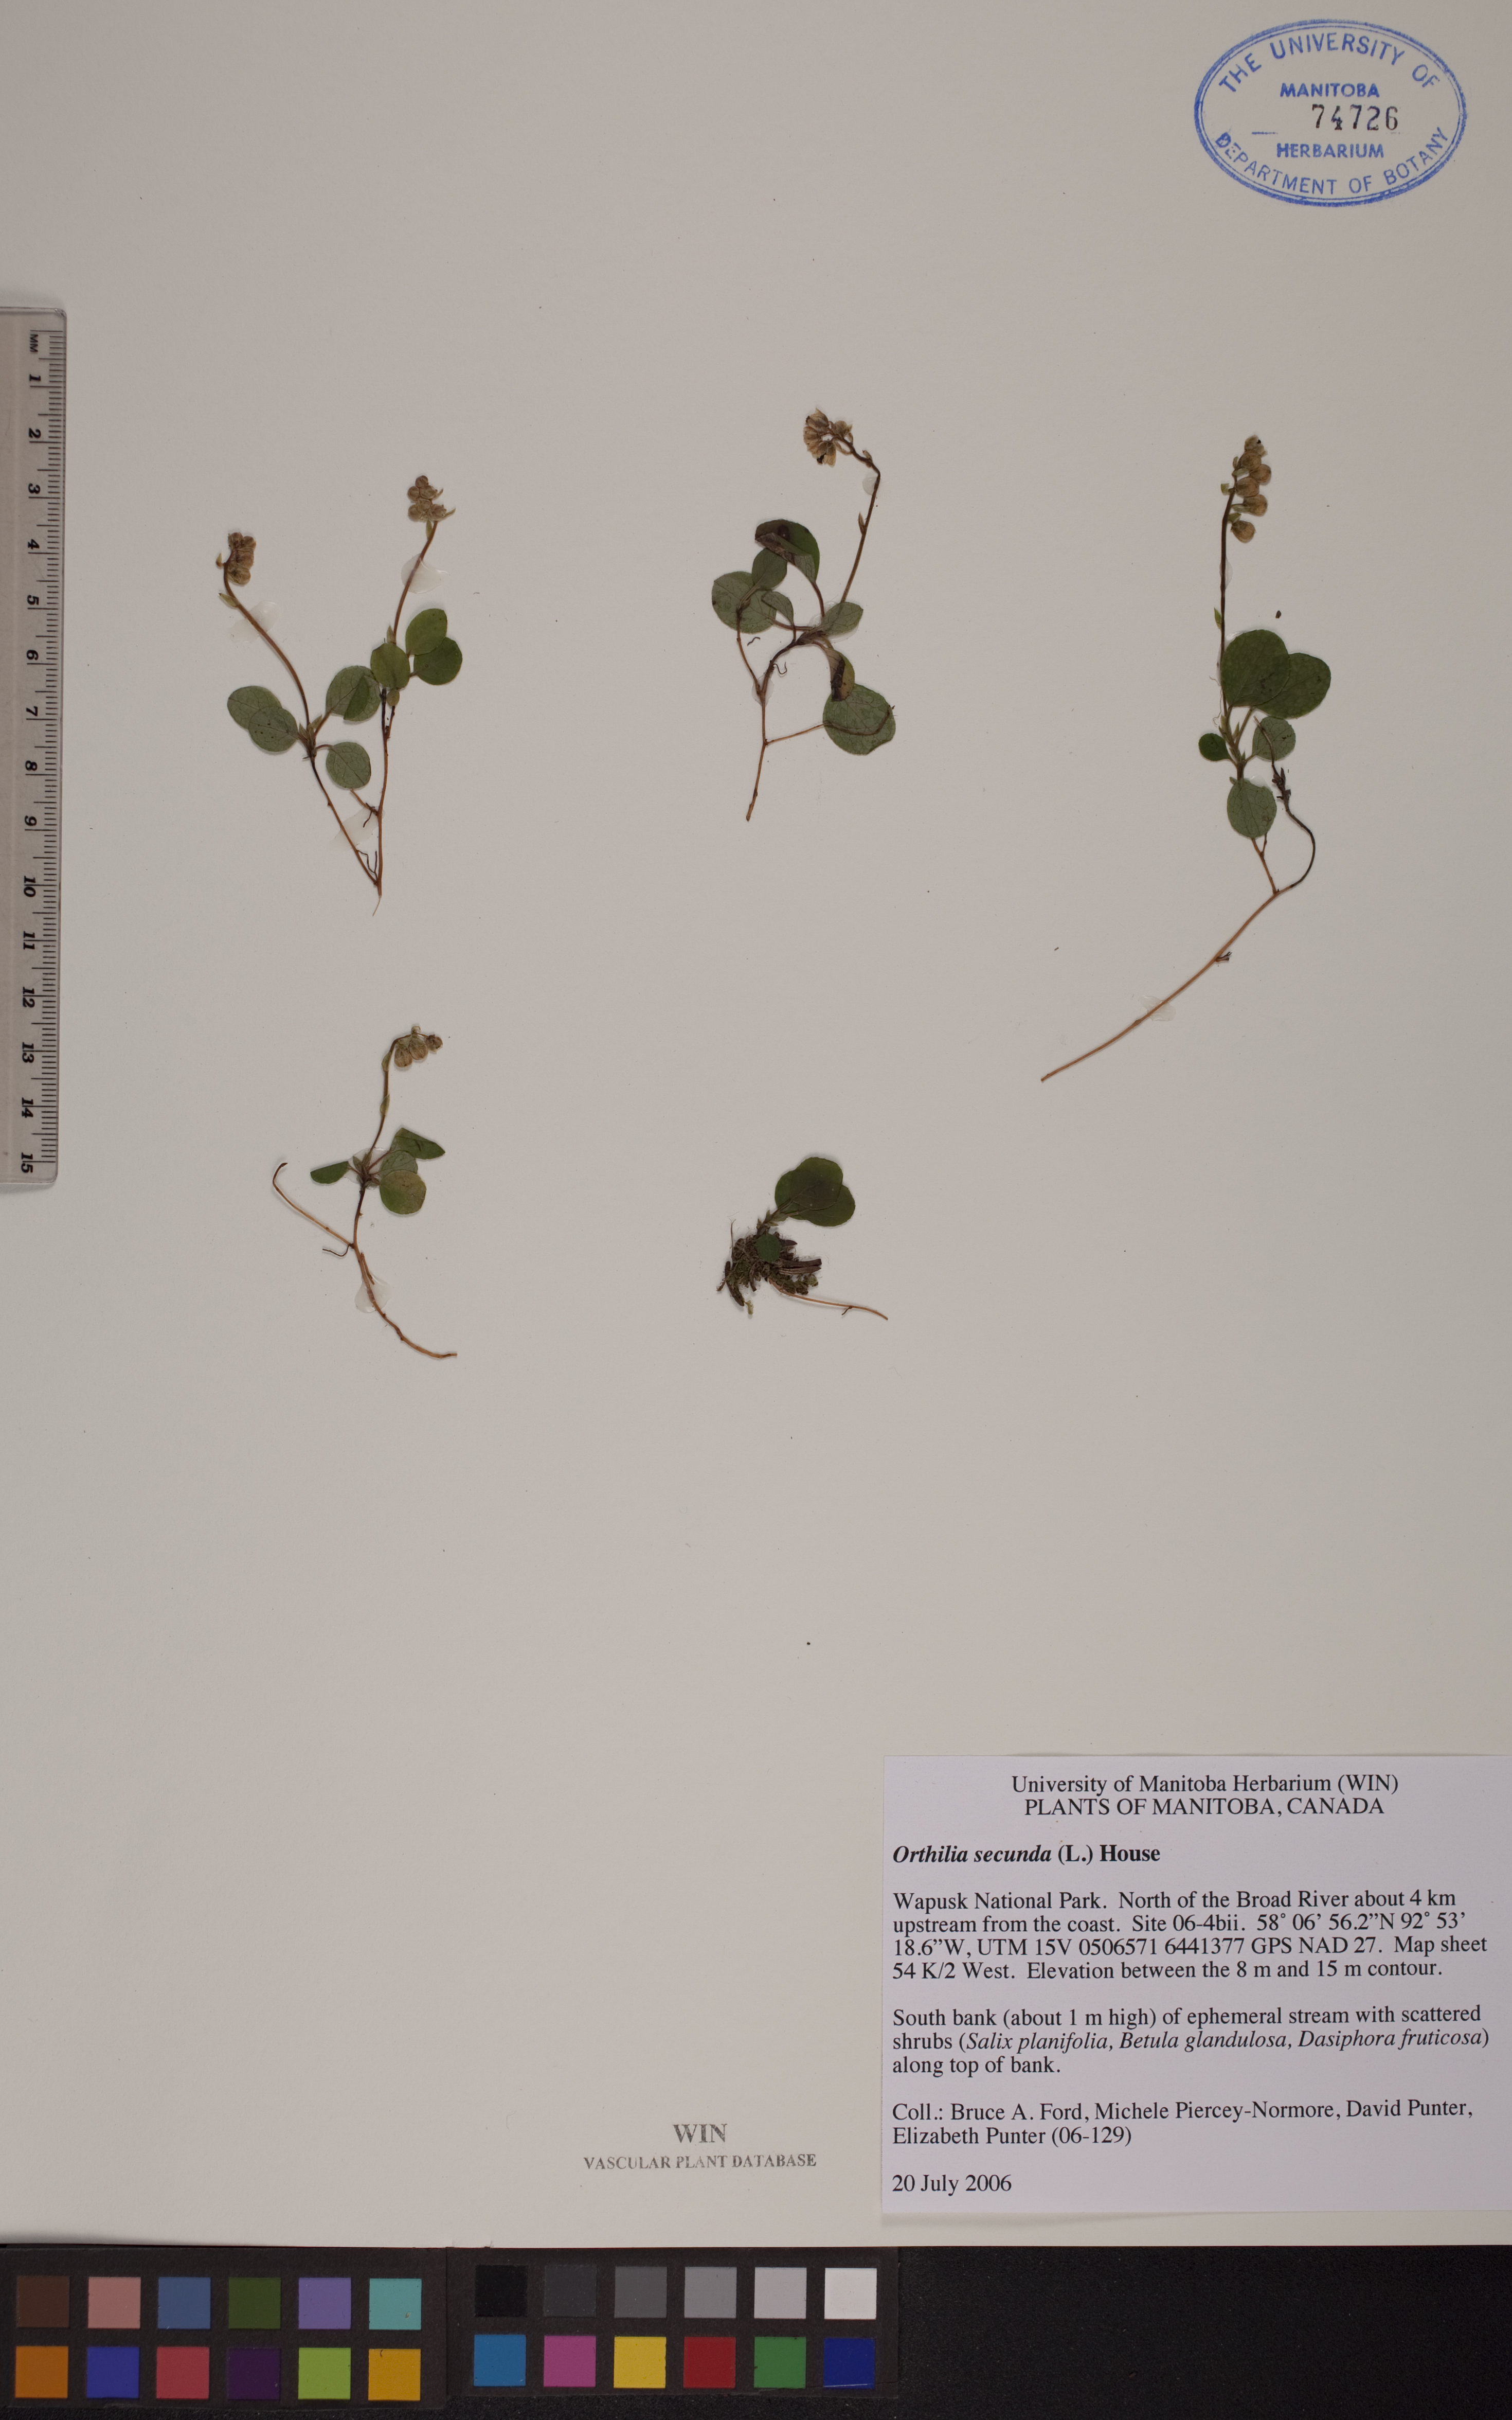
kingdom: Plantae
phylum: Tracheophyta
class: Magnoliopsida
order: Ericales
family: Ericaceae
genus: Orthilia
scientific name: Orthilia secunda
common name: One-sided orthilia
